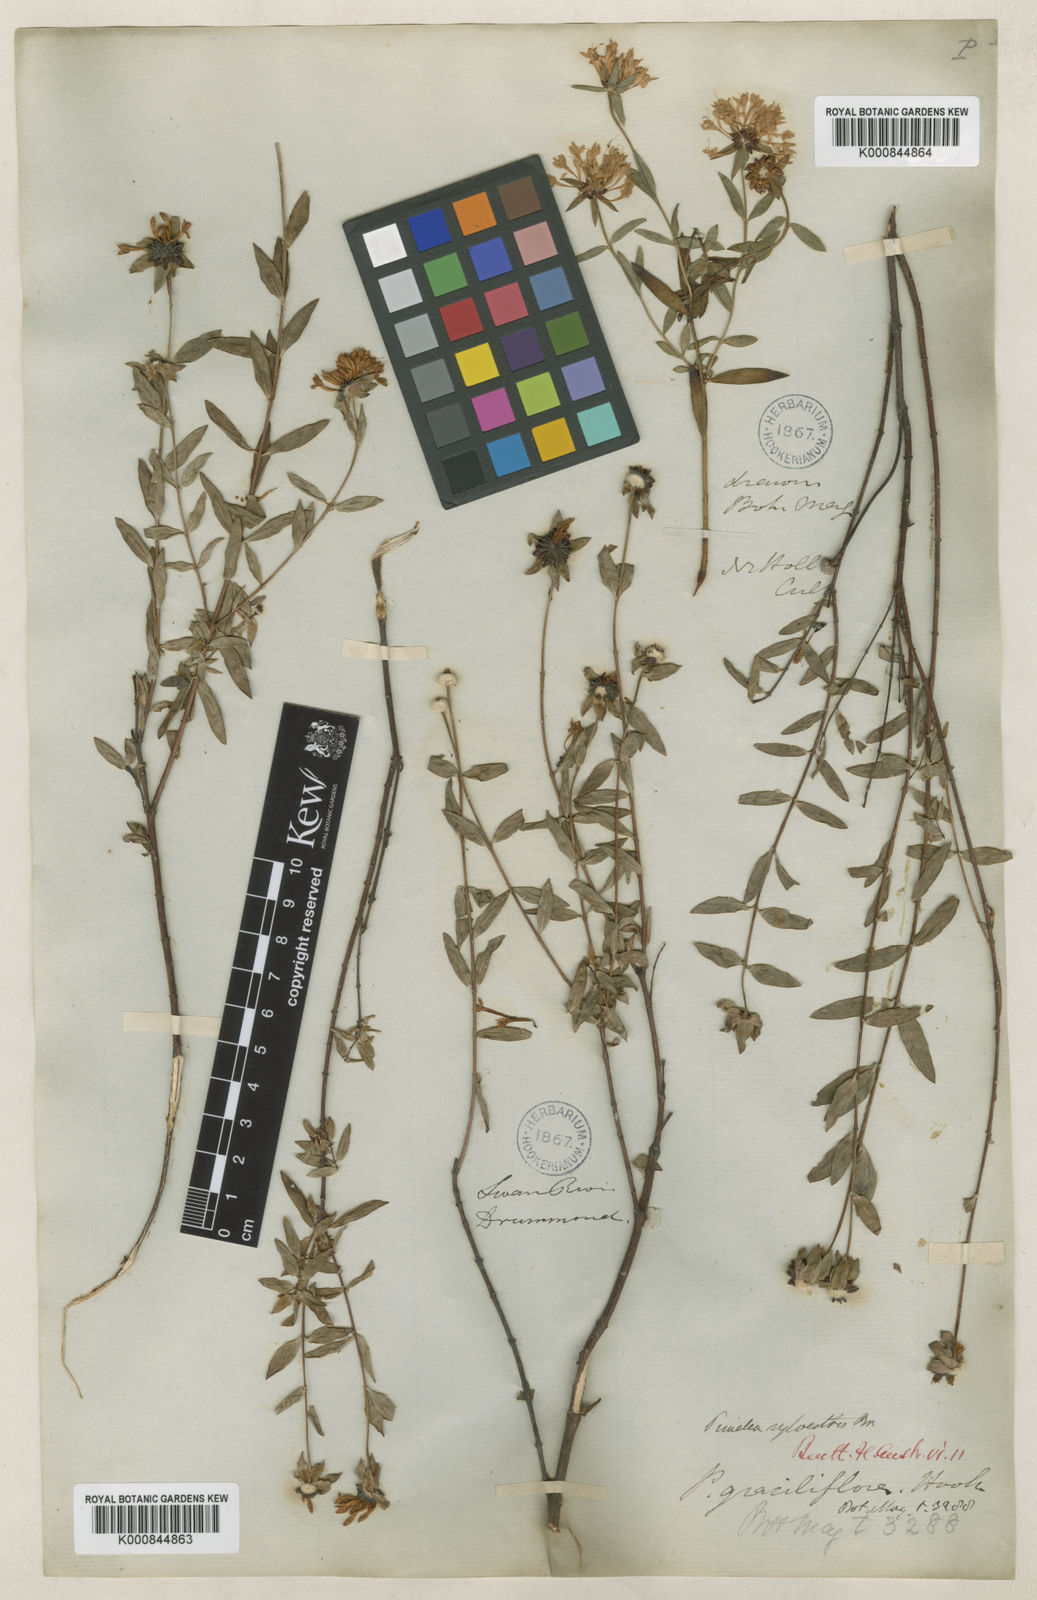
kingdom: Plantae
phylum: Tracheophyta
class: Magnoliopsida
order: Malvales
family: Thymelaeaceae
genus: Pimelea
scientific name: Pimelea sylvestris
